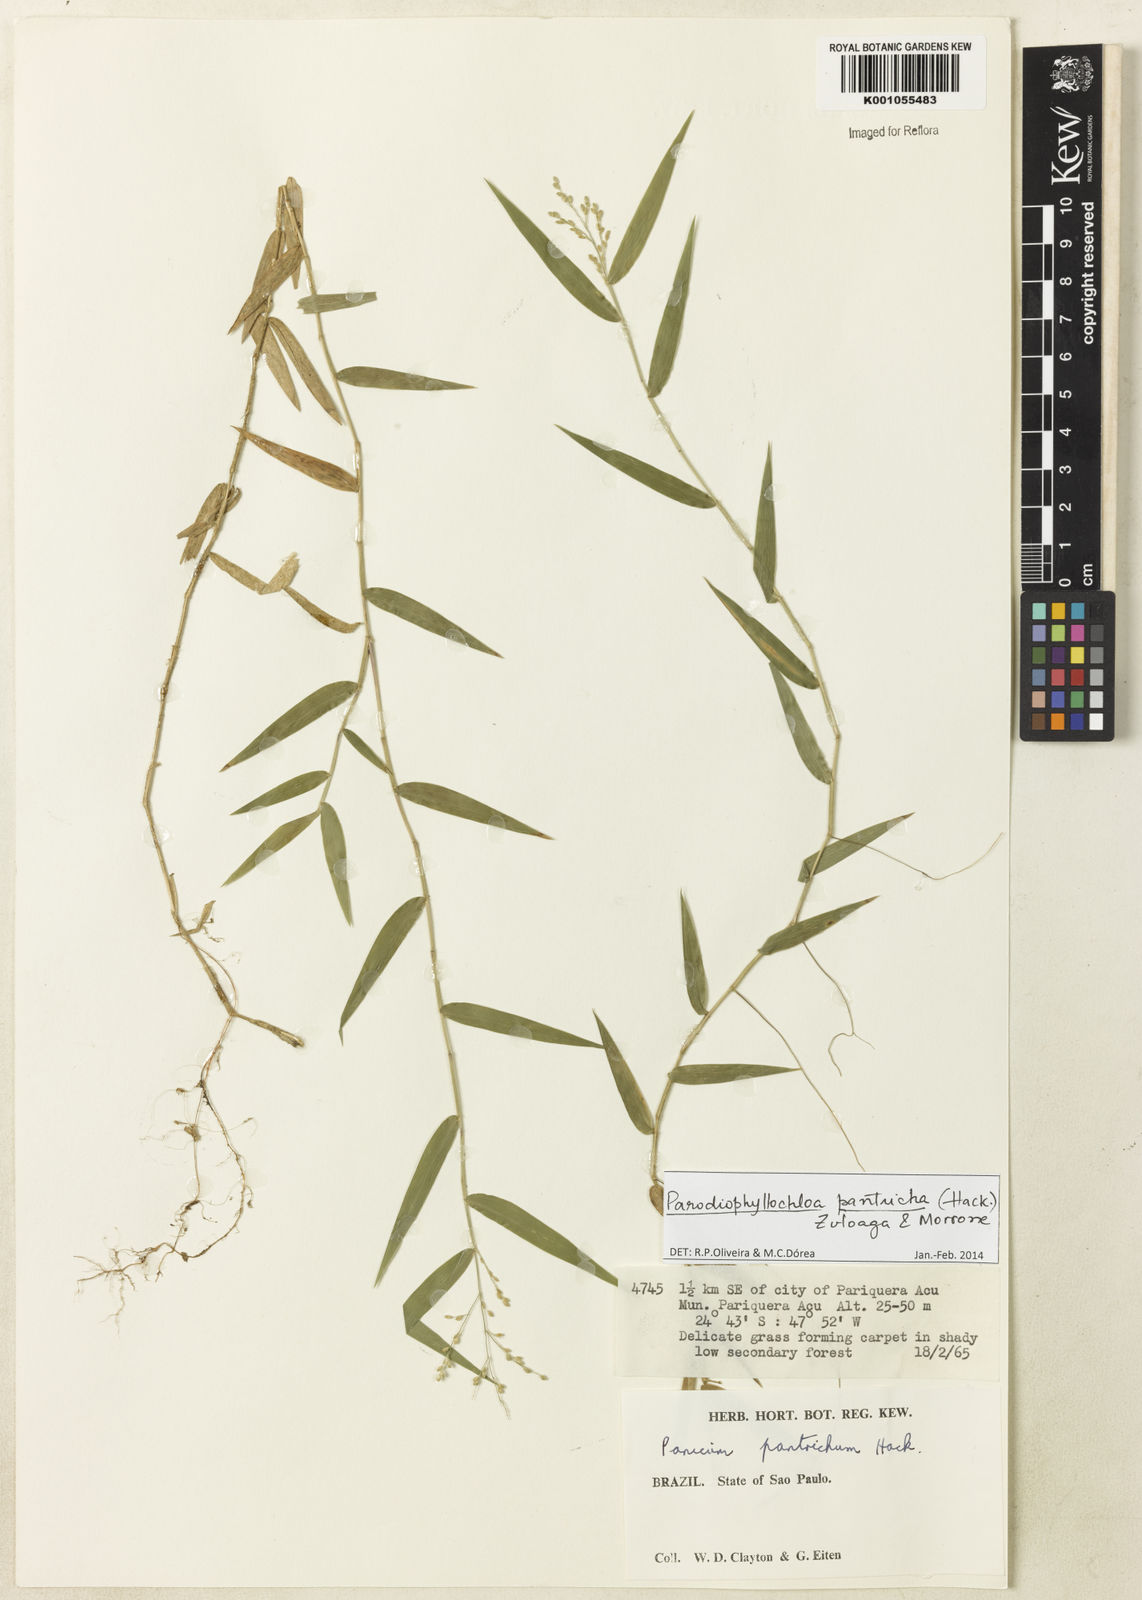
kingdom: Plantae
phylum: Tracheophyta
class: Liliopsida
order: Poales
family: Poaceae
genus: Parodiophyllochloa
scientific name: Parodiophyllochloa pantricha
